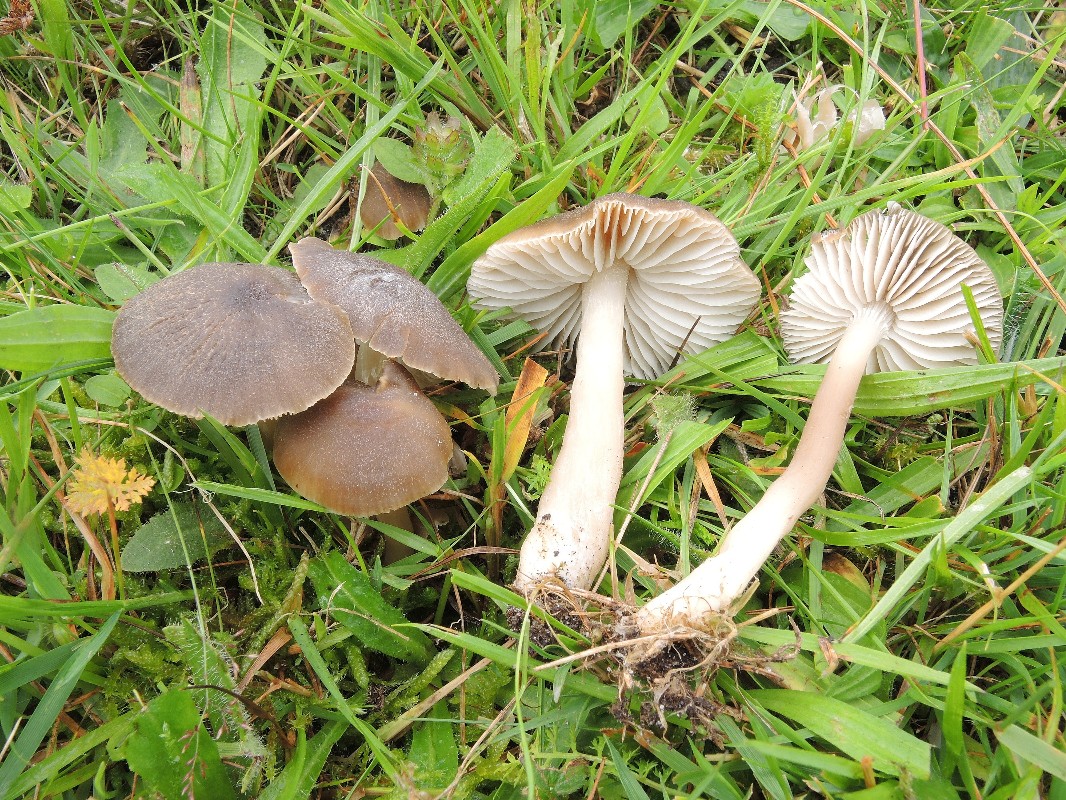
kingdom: Fungi
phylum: Basidiomycota
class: Agaricomycetes
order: Agaricales
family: Hygrophoraceae
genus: Neohygrocybe
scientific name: Neohygrocybe nitrata
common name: stinkende vokshat
